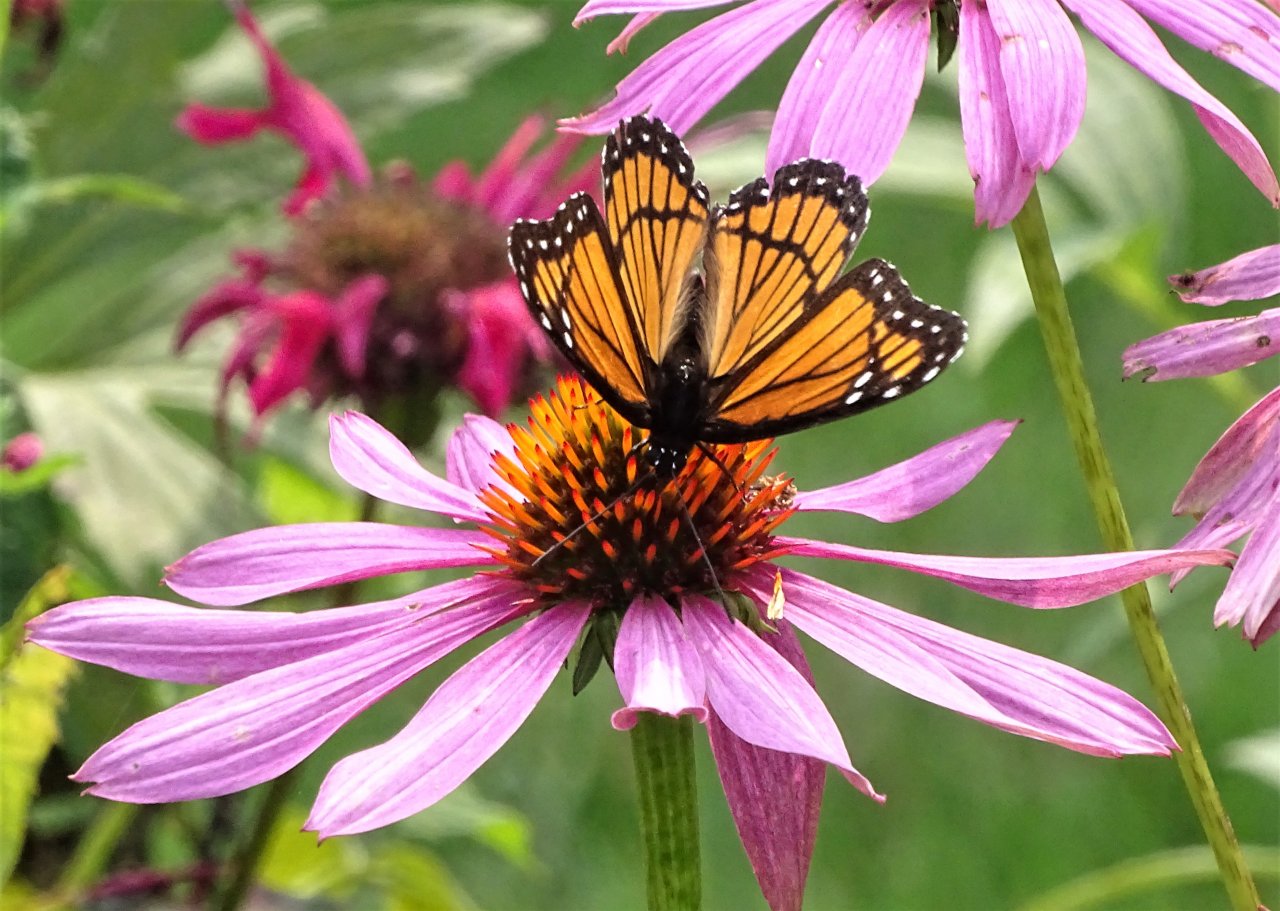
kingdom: Animalia
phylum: Arthropoda
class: Insecta
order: Lepidoptera
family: Nymphalidae
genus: Limenitis
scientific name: Limenitis archippus
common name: Viceroy
